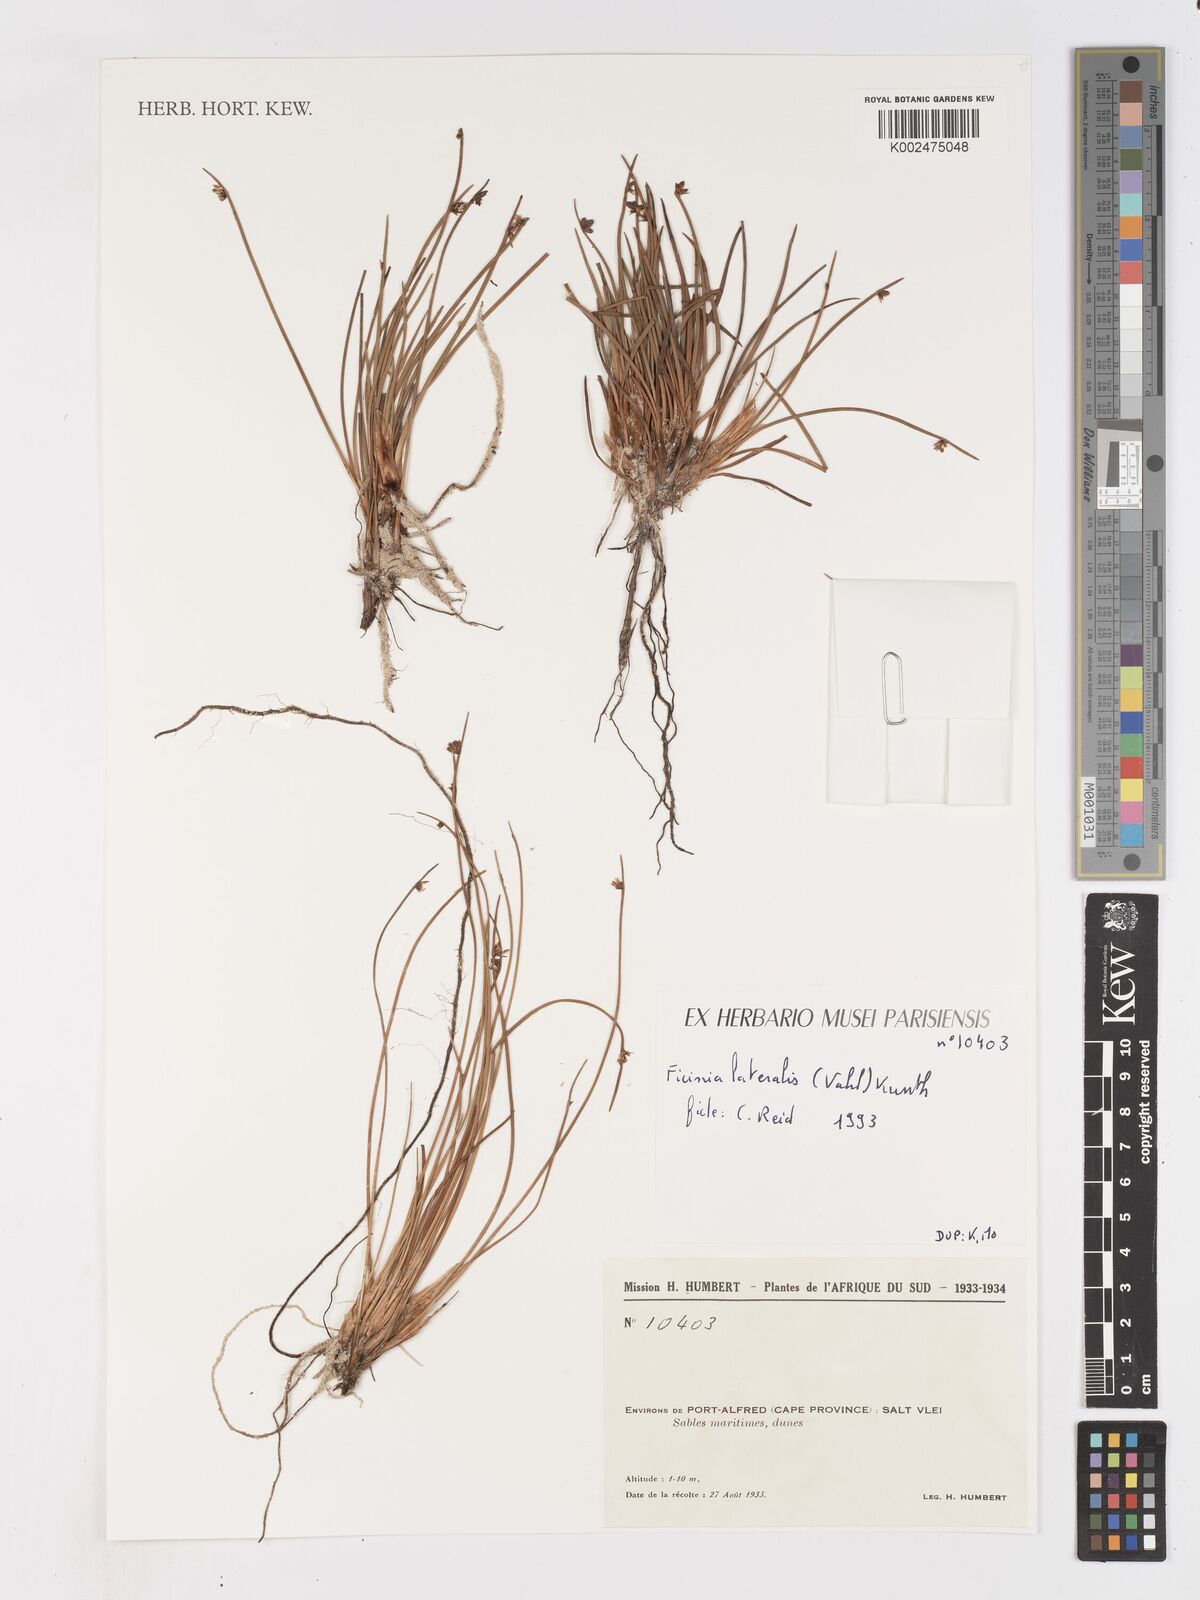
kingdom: Plantae
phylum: Tracheophyta
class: Liliopsida
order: Poales
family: Cyperaceae
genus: Ficinia
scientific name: Ficinia lateralis
